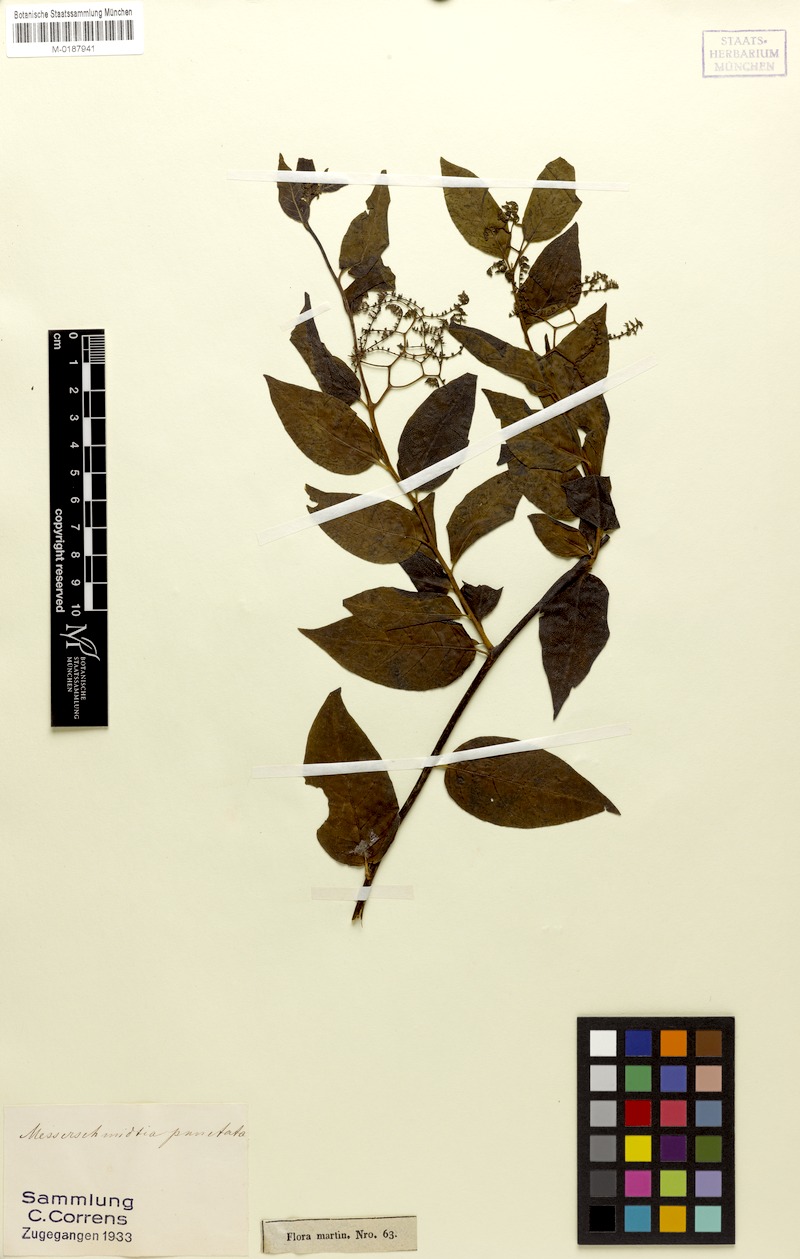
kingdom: Plantae
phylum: Tracheophyta
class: Magnoliopsida
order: Boraginales
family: Heliotropiaceae
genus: Myriopus
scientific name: Myriopus psilostachya
